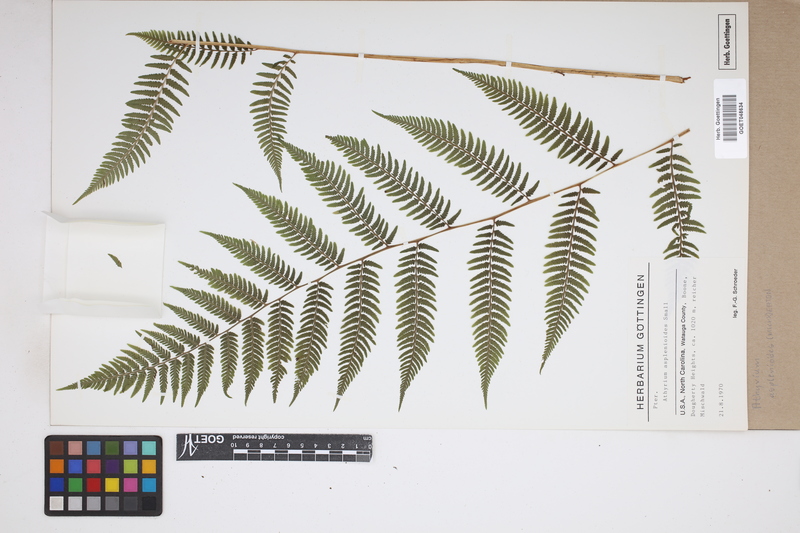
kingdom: Plantae
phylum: Tracheophyta
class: Polypodiopsida
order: Polypodiales
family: Athyriaceae
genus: Athyrium
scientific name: Athyrium asplenioides
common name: Southern lady fern
